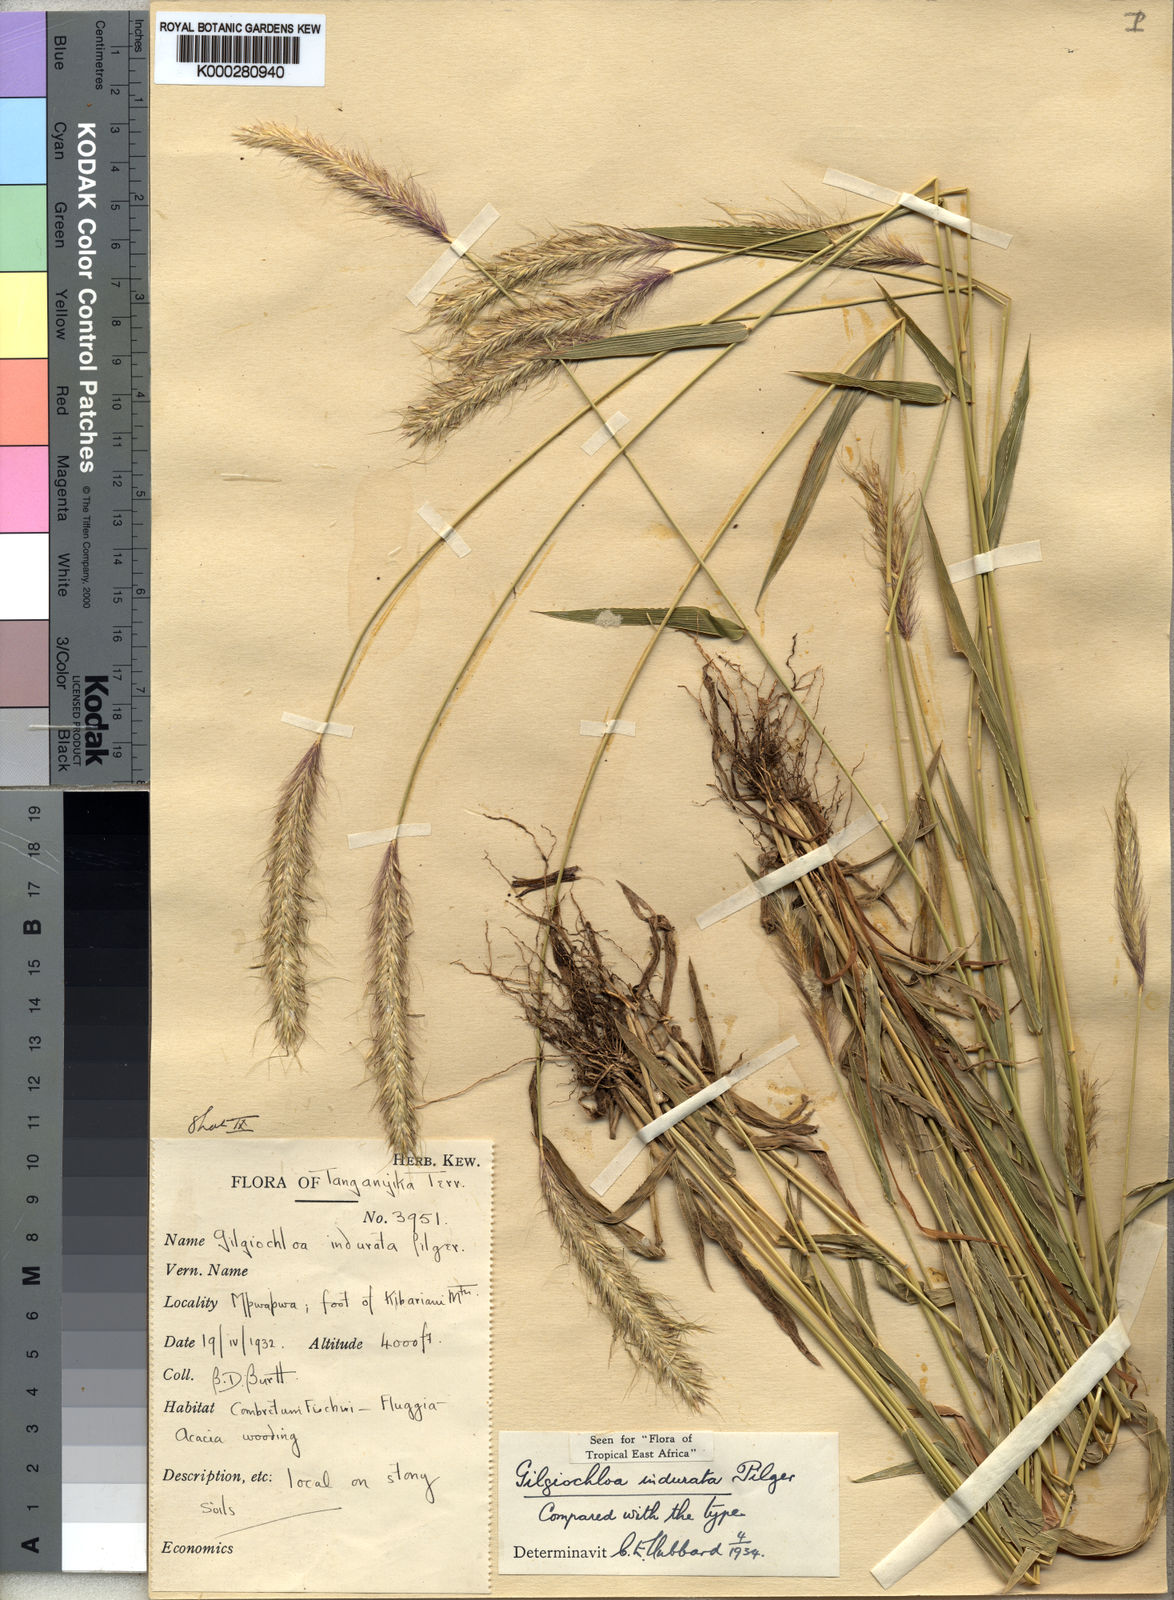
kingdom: Plantae
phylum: Tracheophyta
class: Liliopsida
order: Poales
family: Poaceae
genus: Gilgiochloa
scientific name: Gilgiochloa indurata
